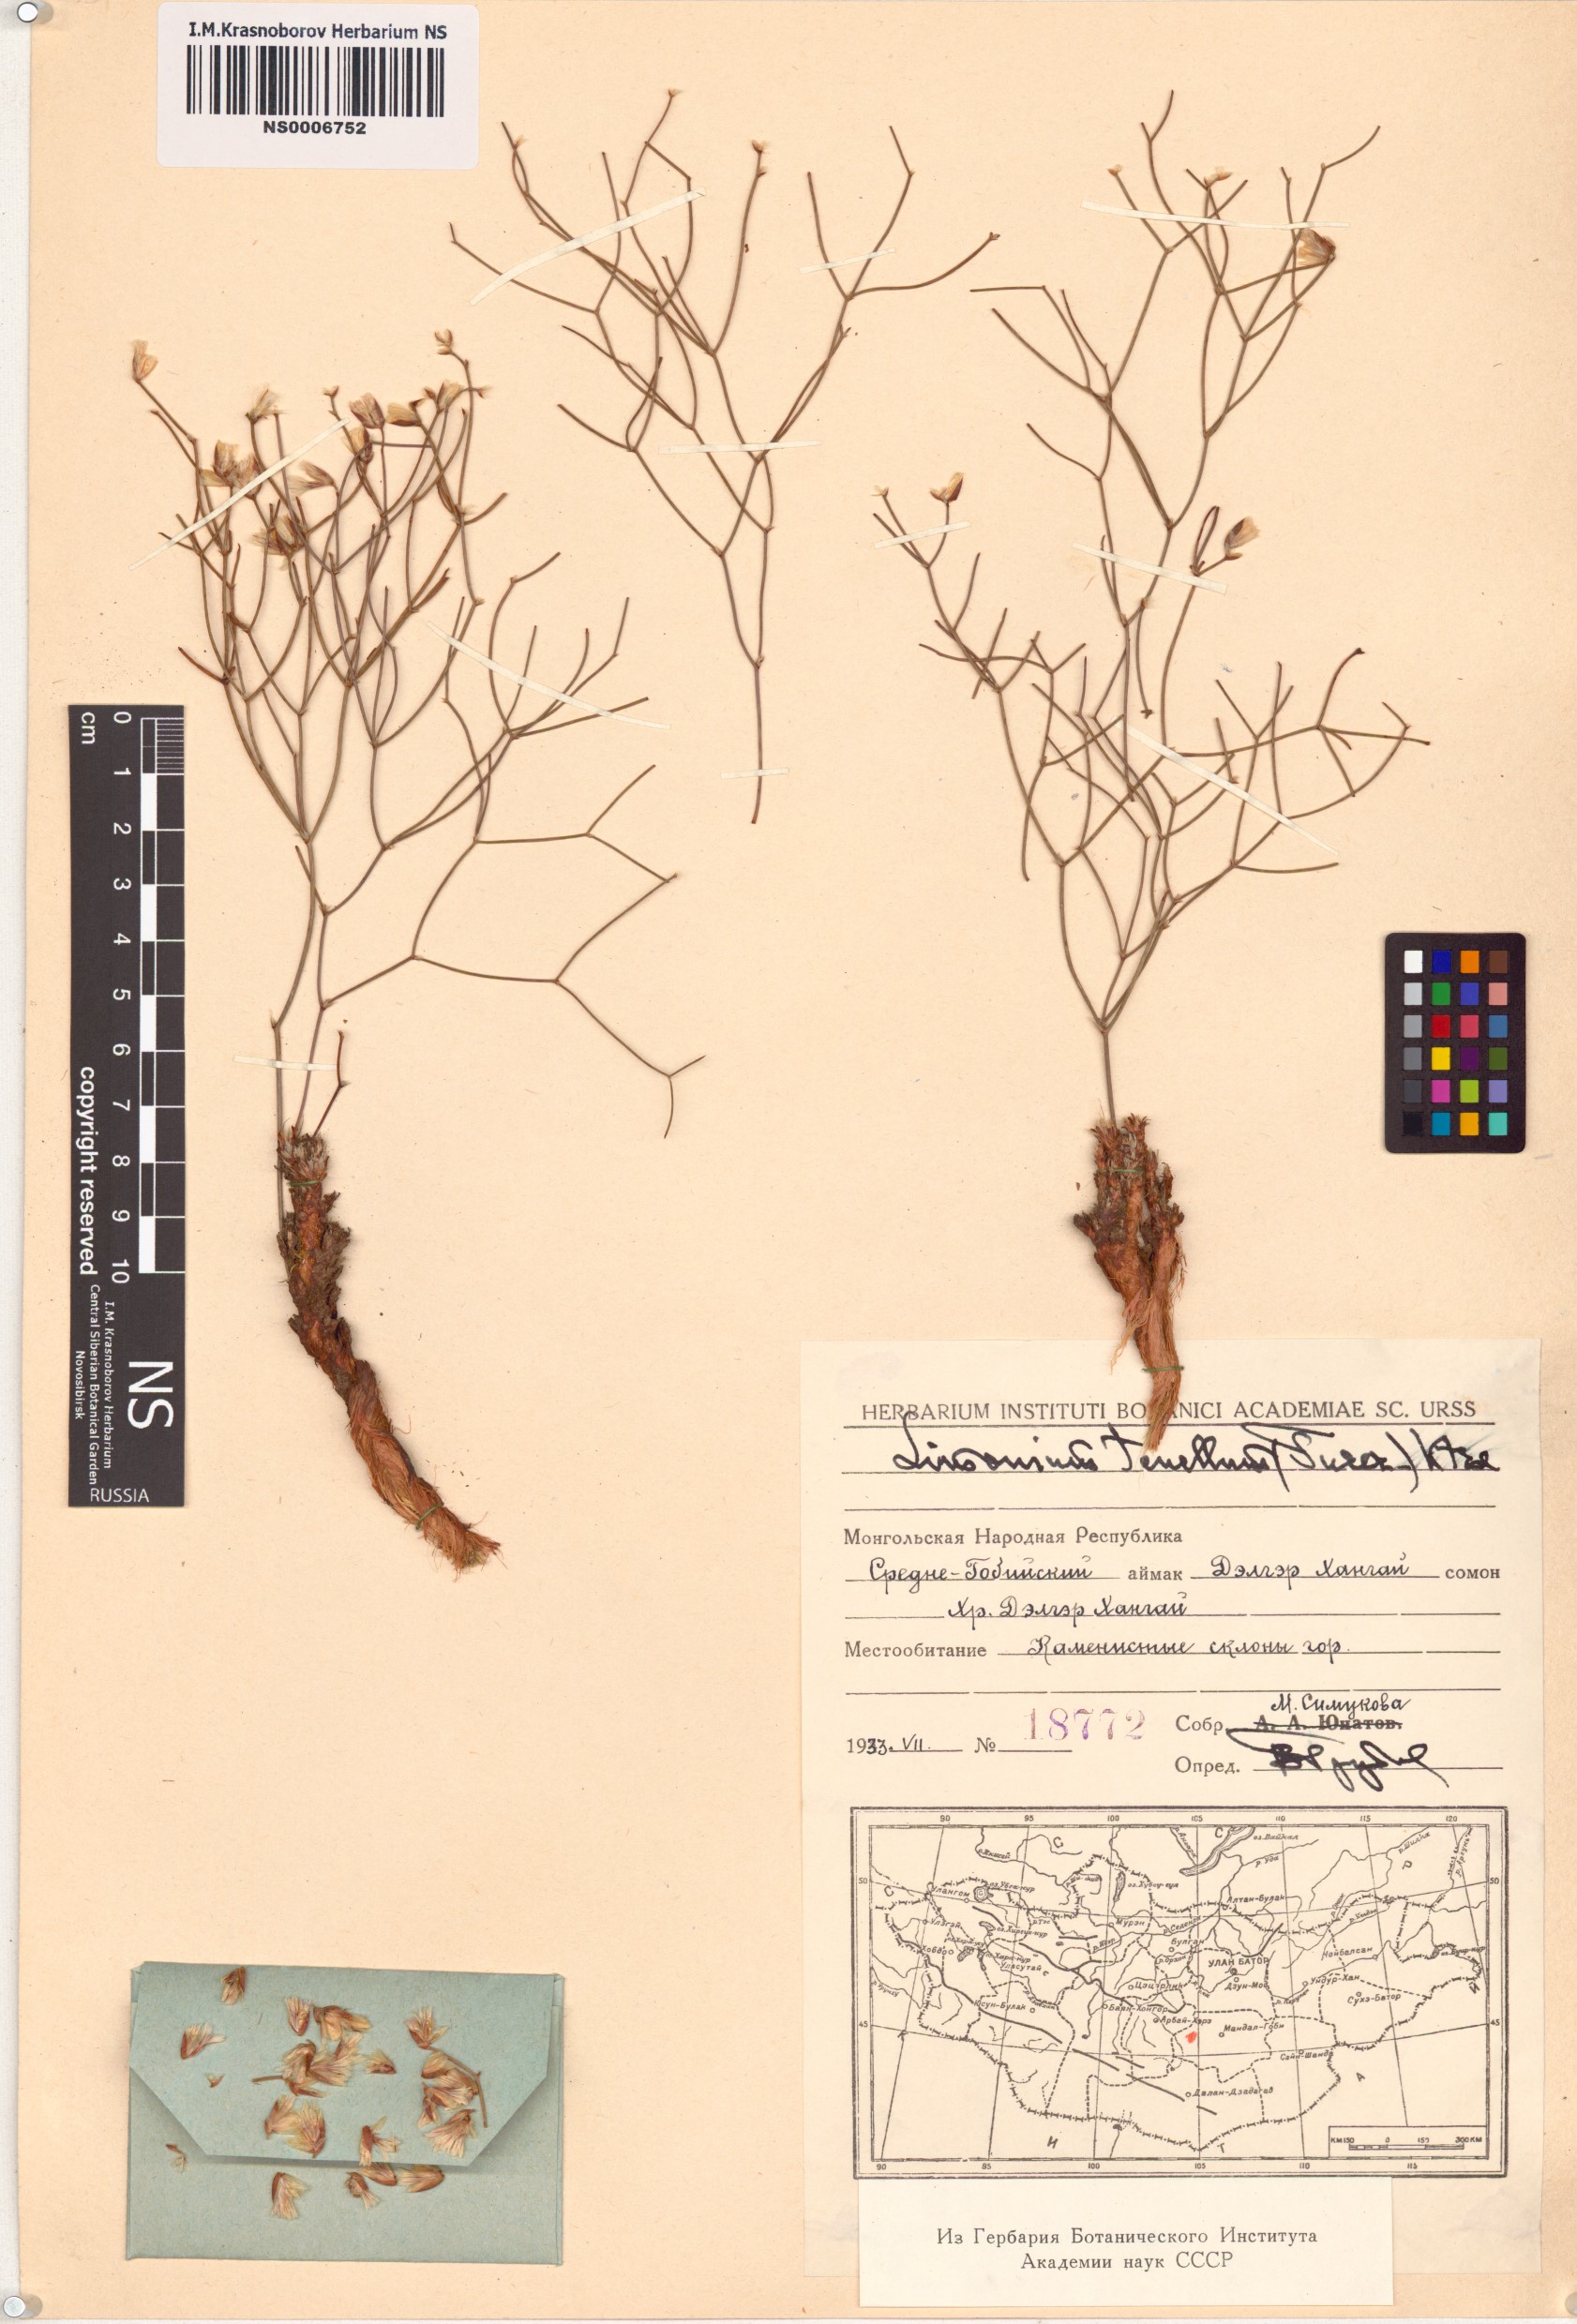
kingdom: Plantae
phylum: Tracheophyta
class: Magnoliopsida
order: Caryophyllales
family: Plumbaginaceae
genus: Limonium
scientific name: Limonium tenellum
